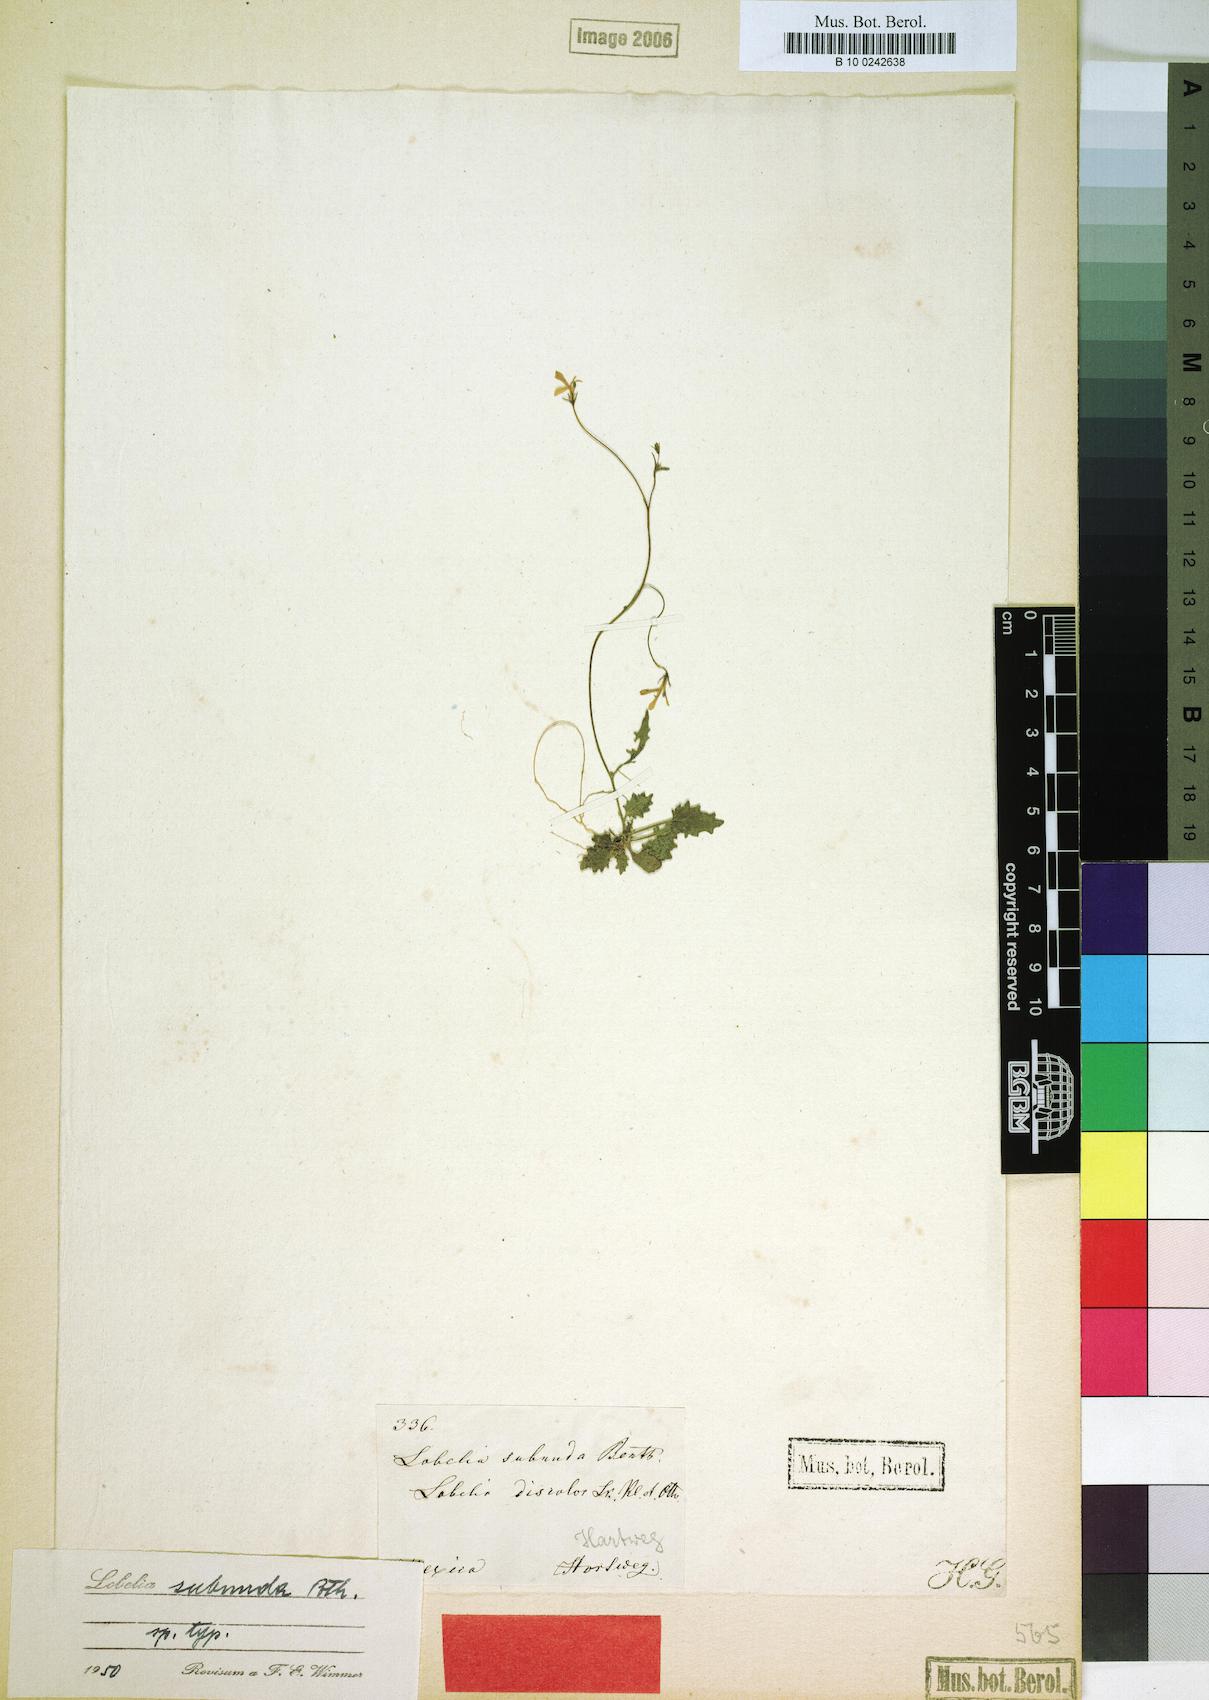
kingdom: Plantae
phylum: Tracheophyta
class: Magnoliopsida
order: Asterales
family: Campanulaceae
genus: Lobelia
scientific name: Lobelia subnuda
